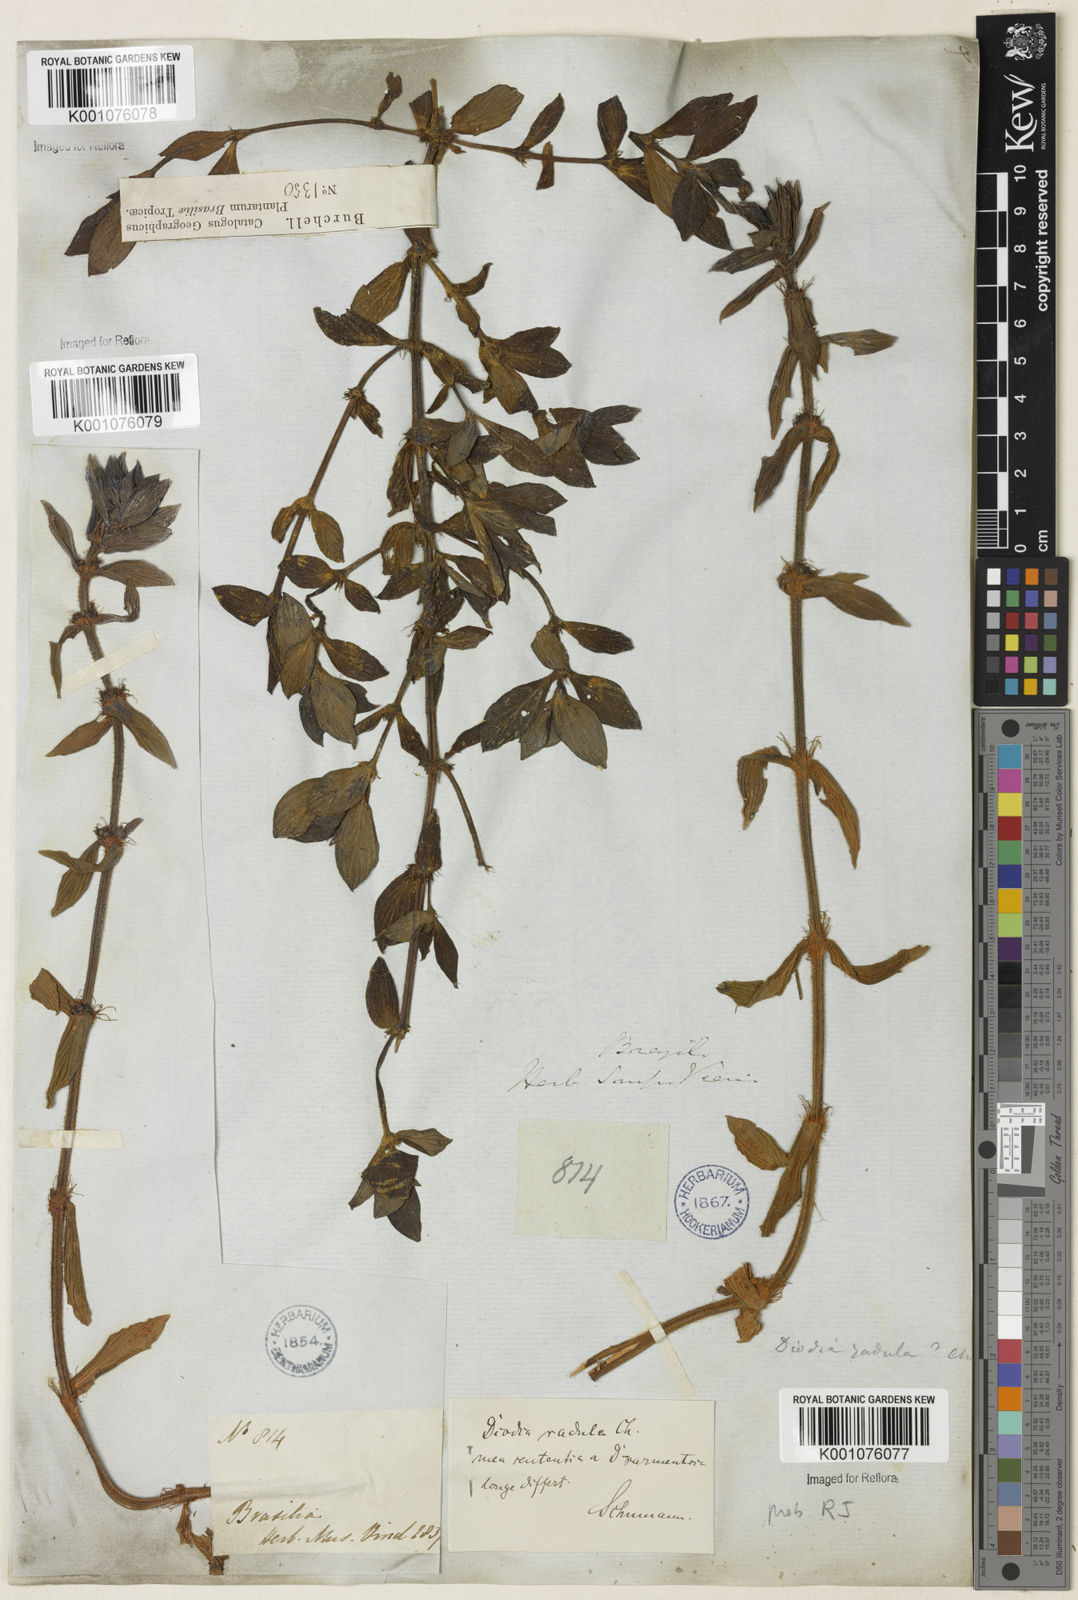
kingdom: Plantae
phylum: Tracheophyta
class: Magnoliopsida
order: Gentianales
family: Rubiaceae
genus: Hexasepalum
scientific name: Hexasepalum radulum
